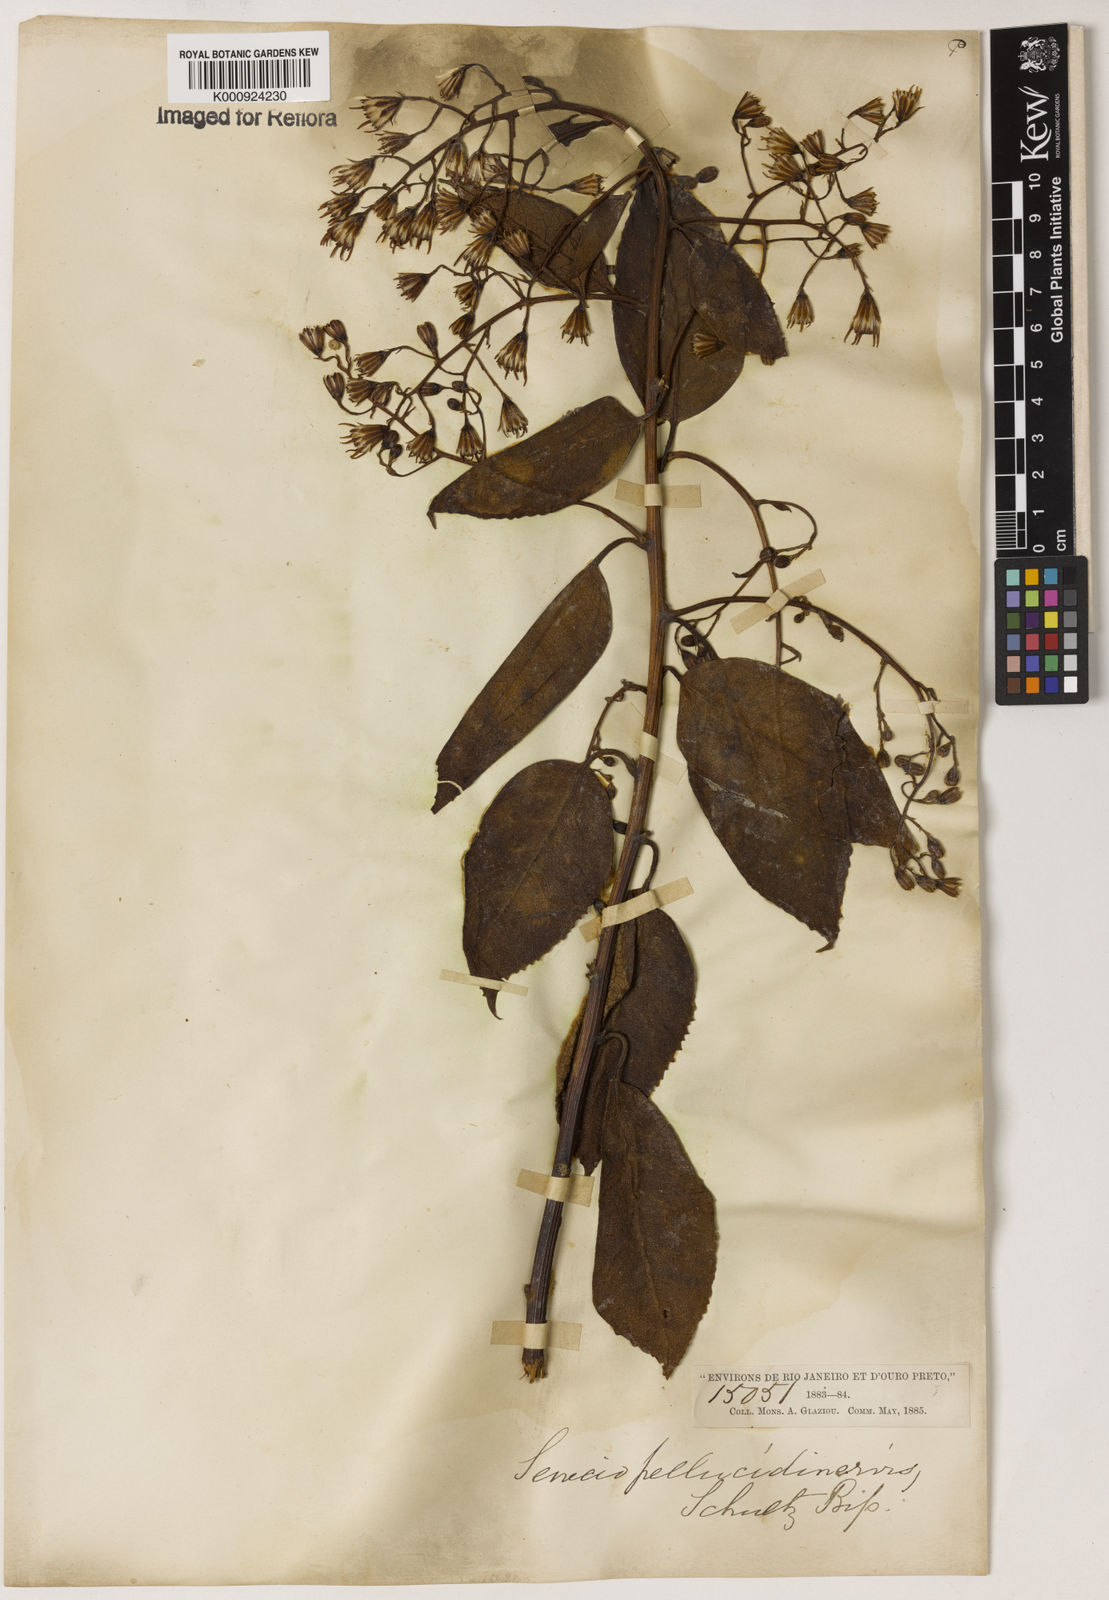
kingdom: Plantae
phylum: Tracheophyta
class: Magnoliopsida
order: Asterales
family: Asteraceae
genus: Dendrophorbium
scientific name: Dendrophorbium pellucidinerve
